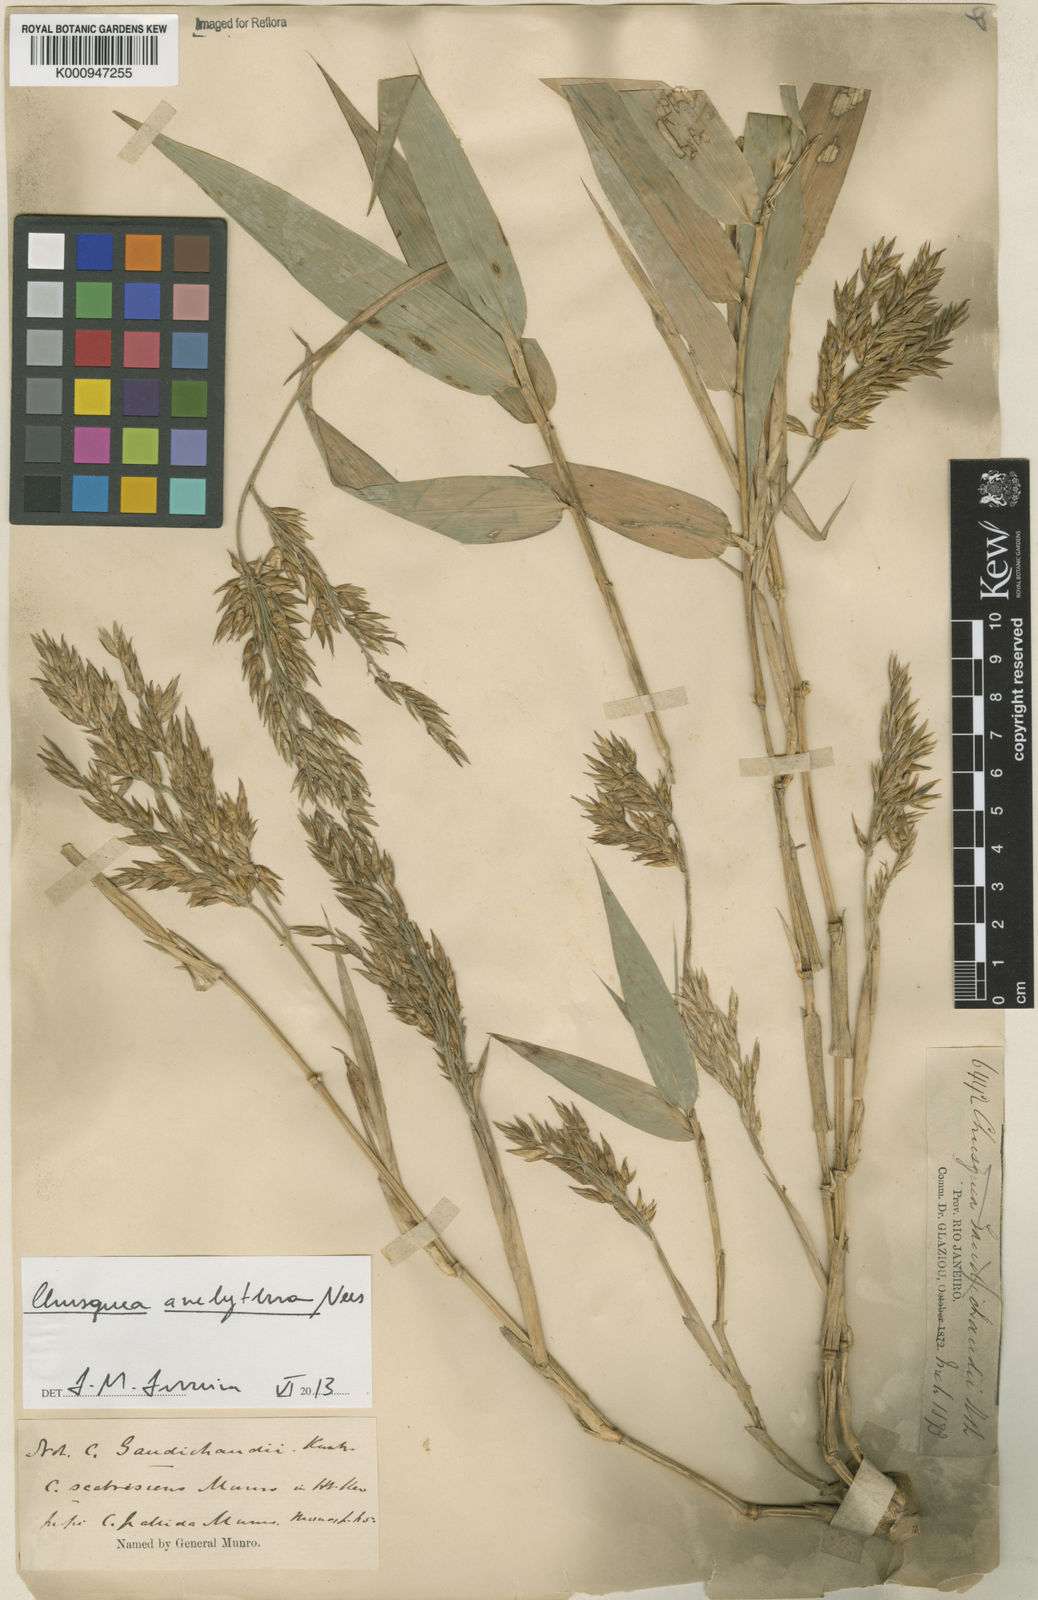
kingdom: Plantae
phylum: Tracheophyta
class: Liliopsida
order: Poales
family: Poaceae
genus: Chusquea
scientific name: Chusquea anelythra
